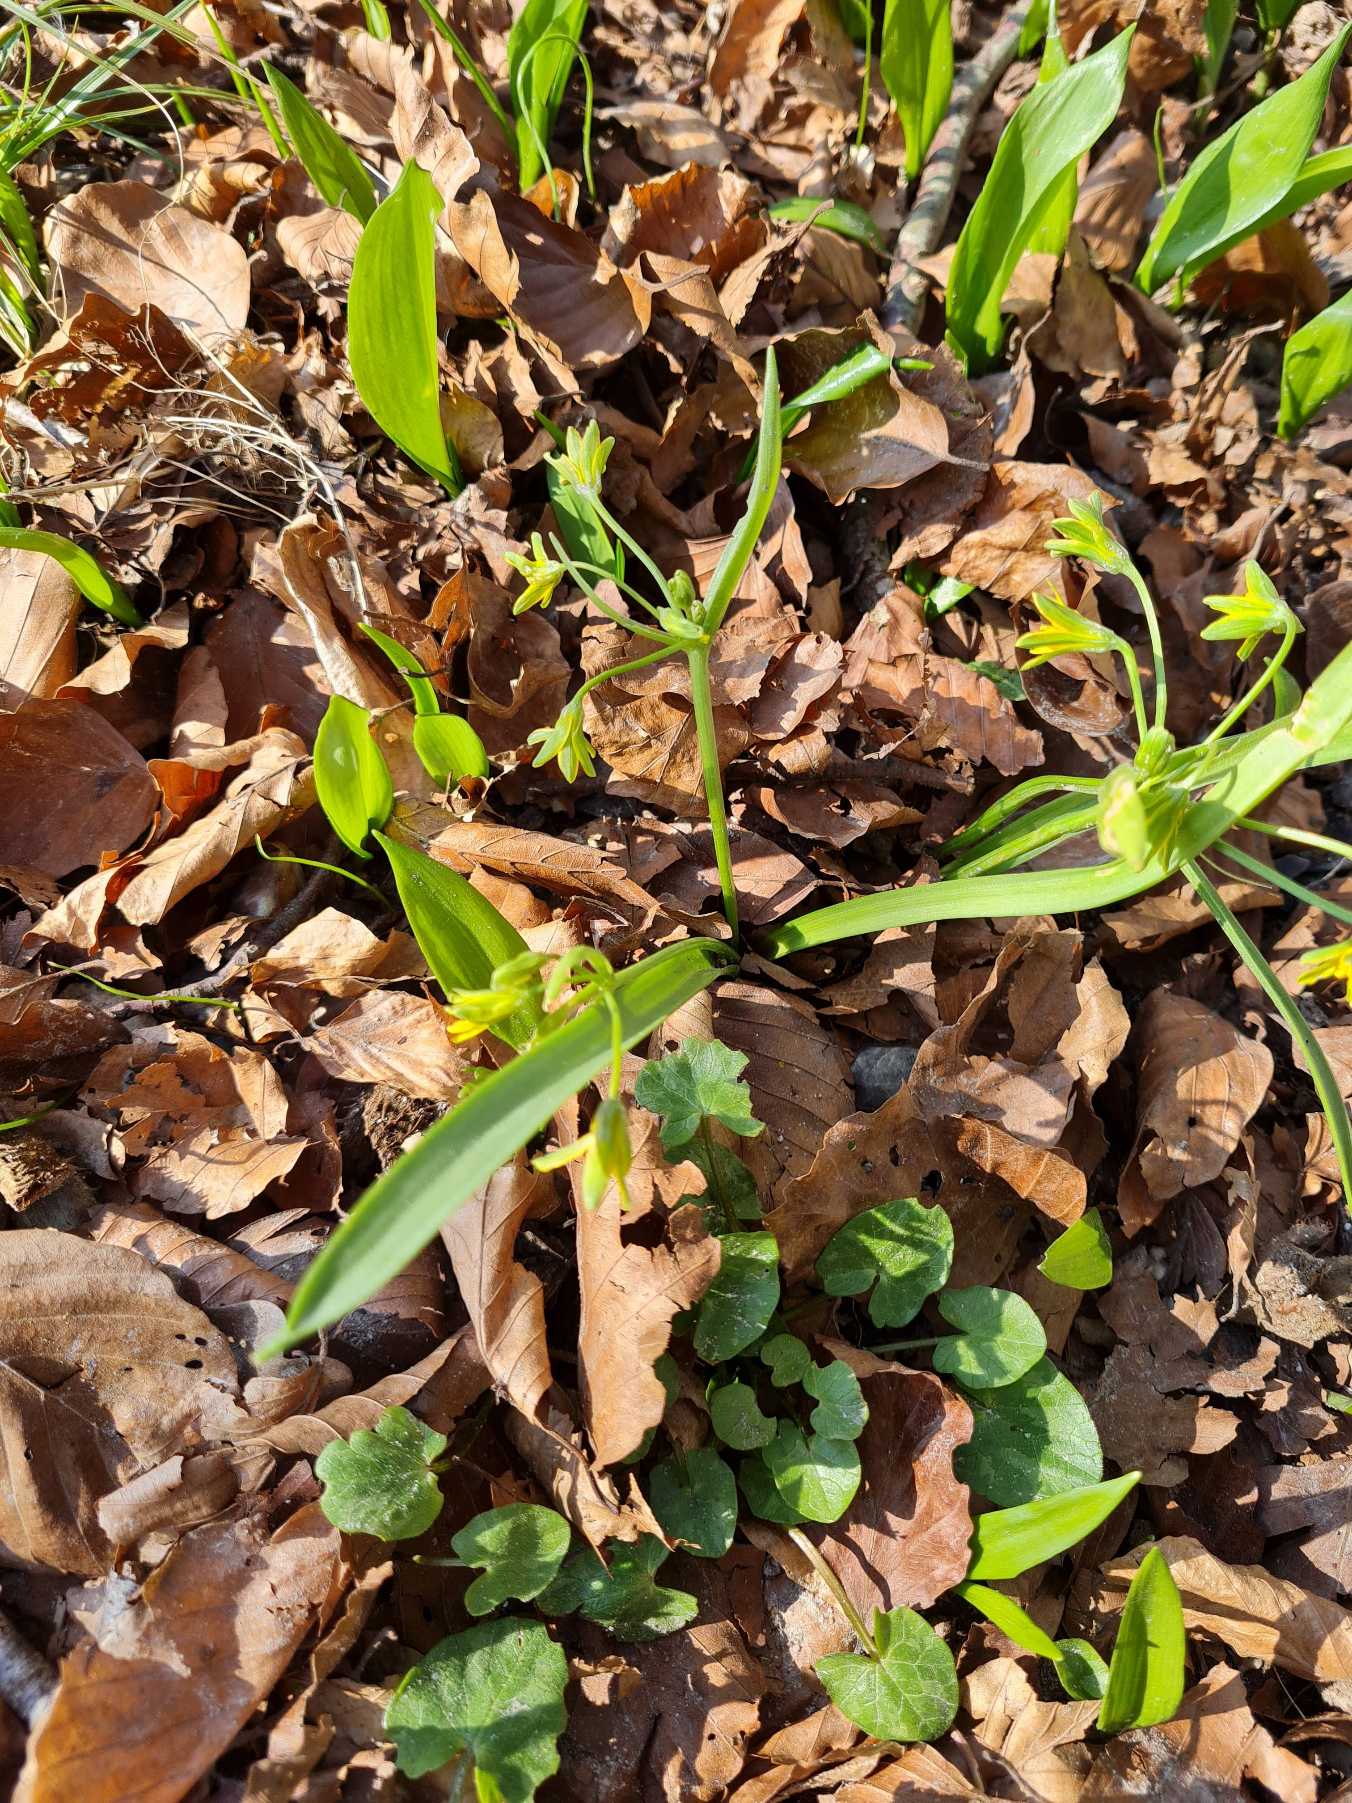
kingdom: Plantae
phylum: Tracheophyta
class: Liliopsida
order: Liliales
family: Liliaceae
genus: Gagea
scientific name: Gagea lutea
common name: Almindelig guldstjerne
